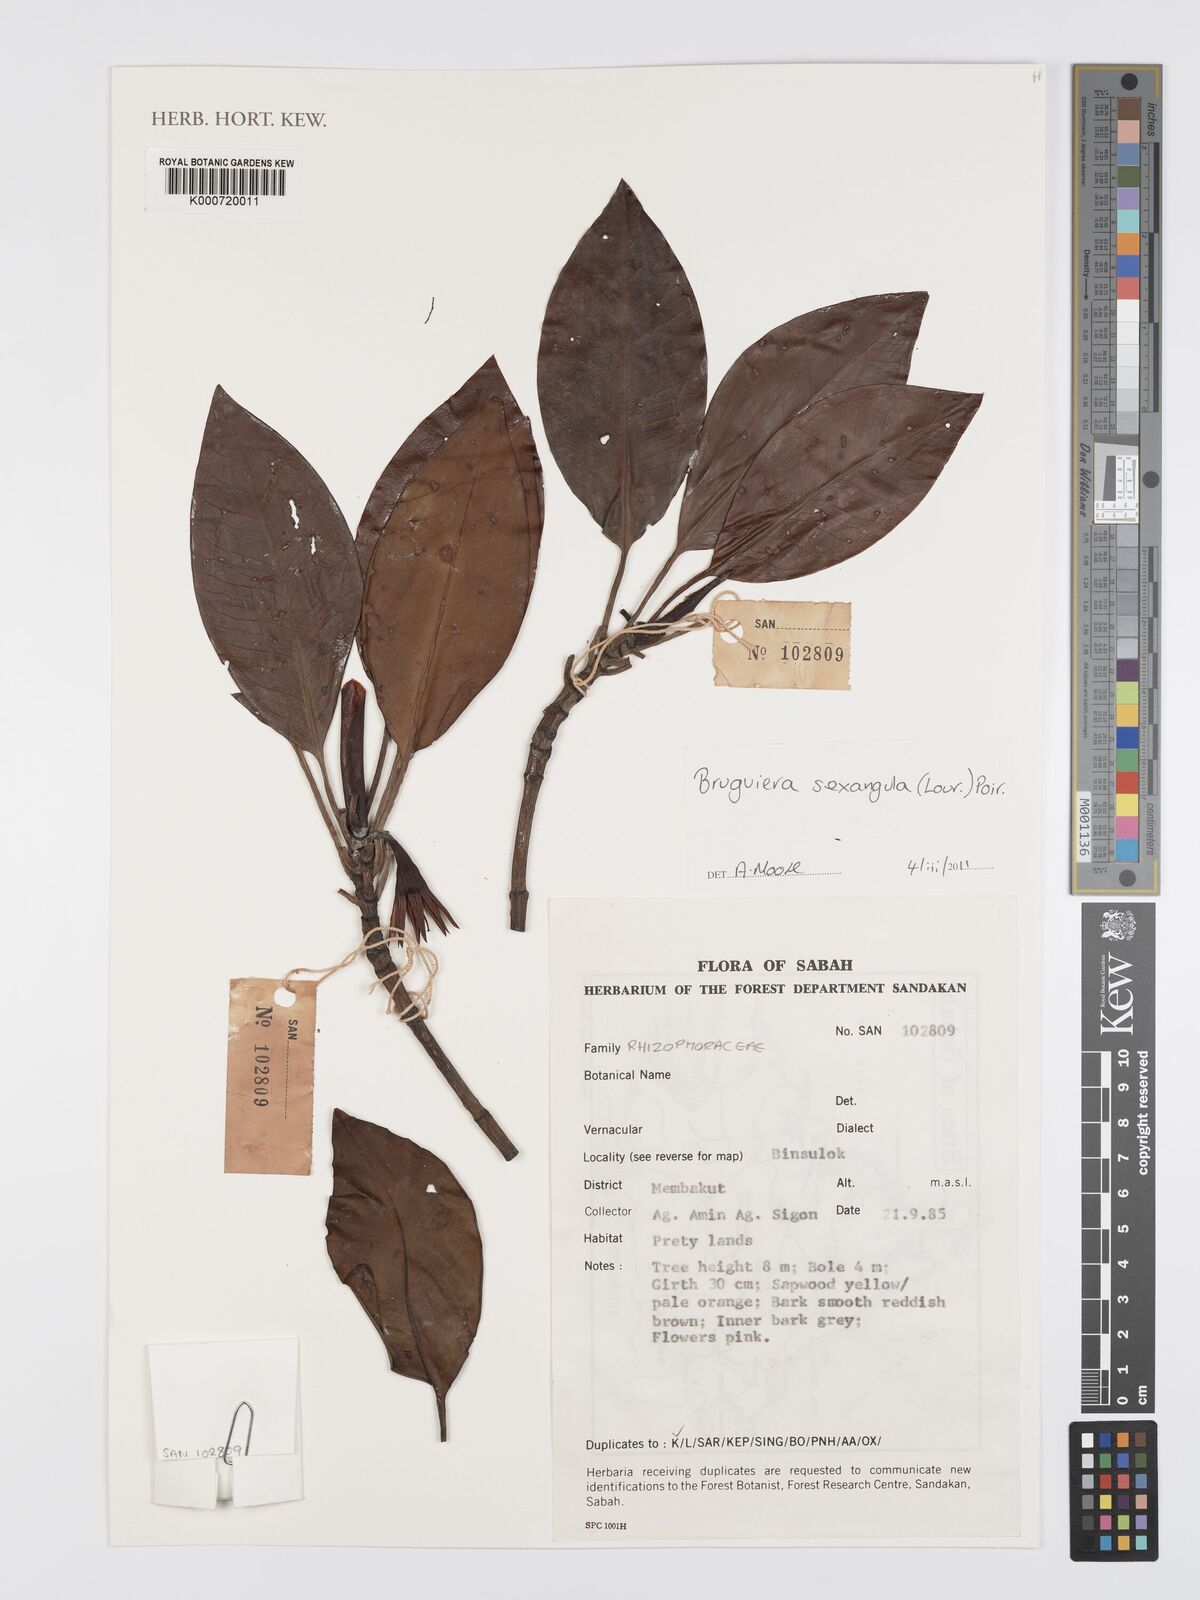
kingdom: Plantae
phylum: Tracheophyta
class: Magnoliopsida
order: Malpighiales
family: Rhizophoraceae
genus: Bruguiera
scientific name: Bruguiera sexangula
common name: Oriental mangrove
